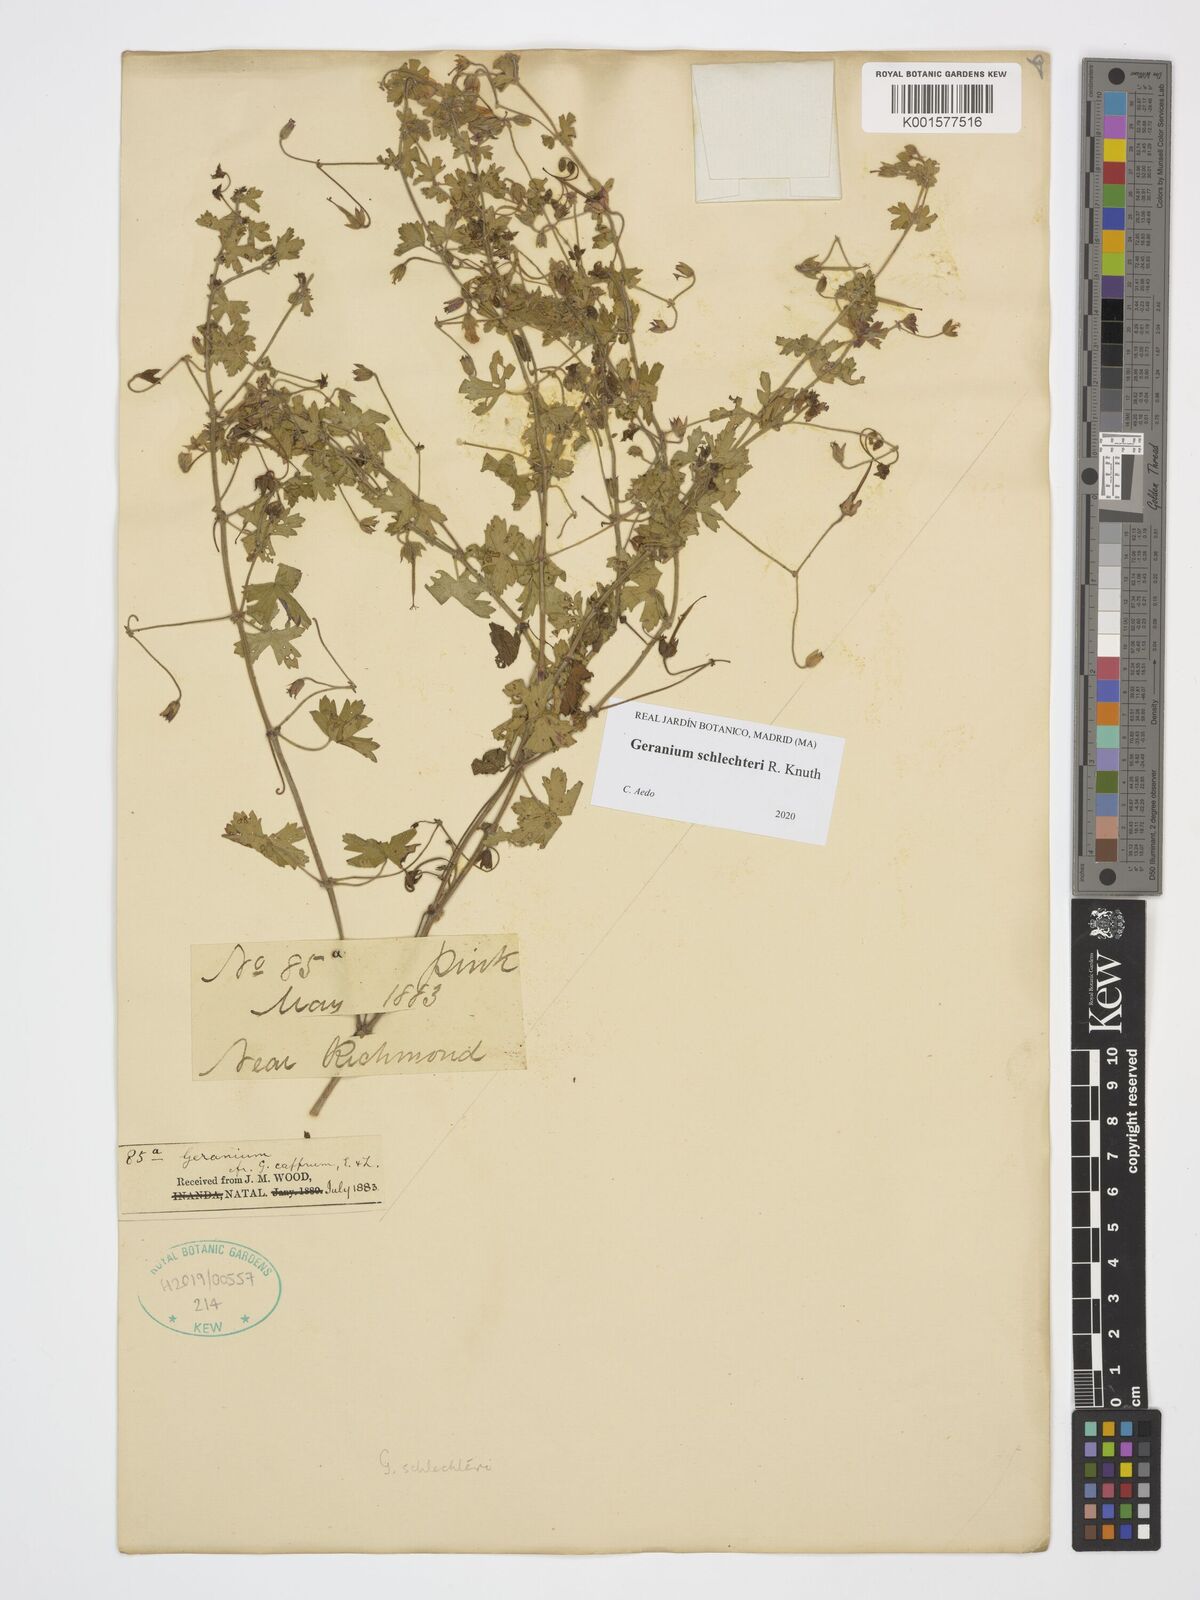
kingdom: Plantae
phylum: Tracheophyta
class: Magnoliopsida
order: Geraniales
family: Geraniaceae
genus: Geranium
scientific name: Geranium schlechteri
